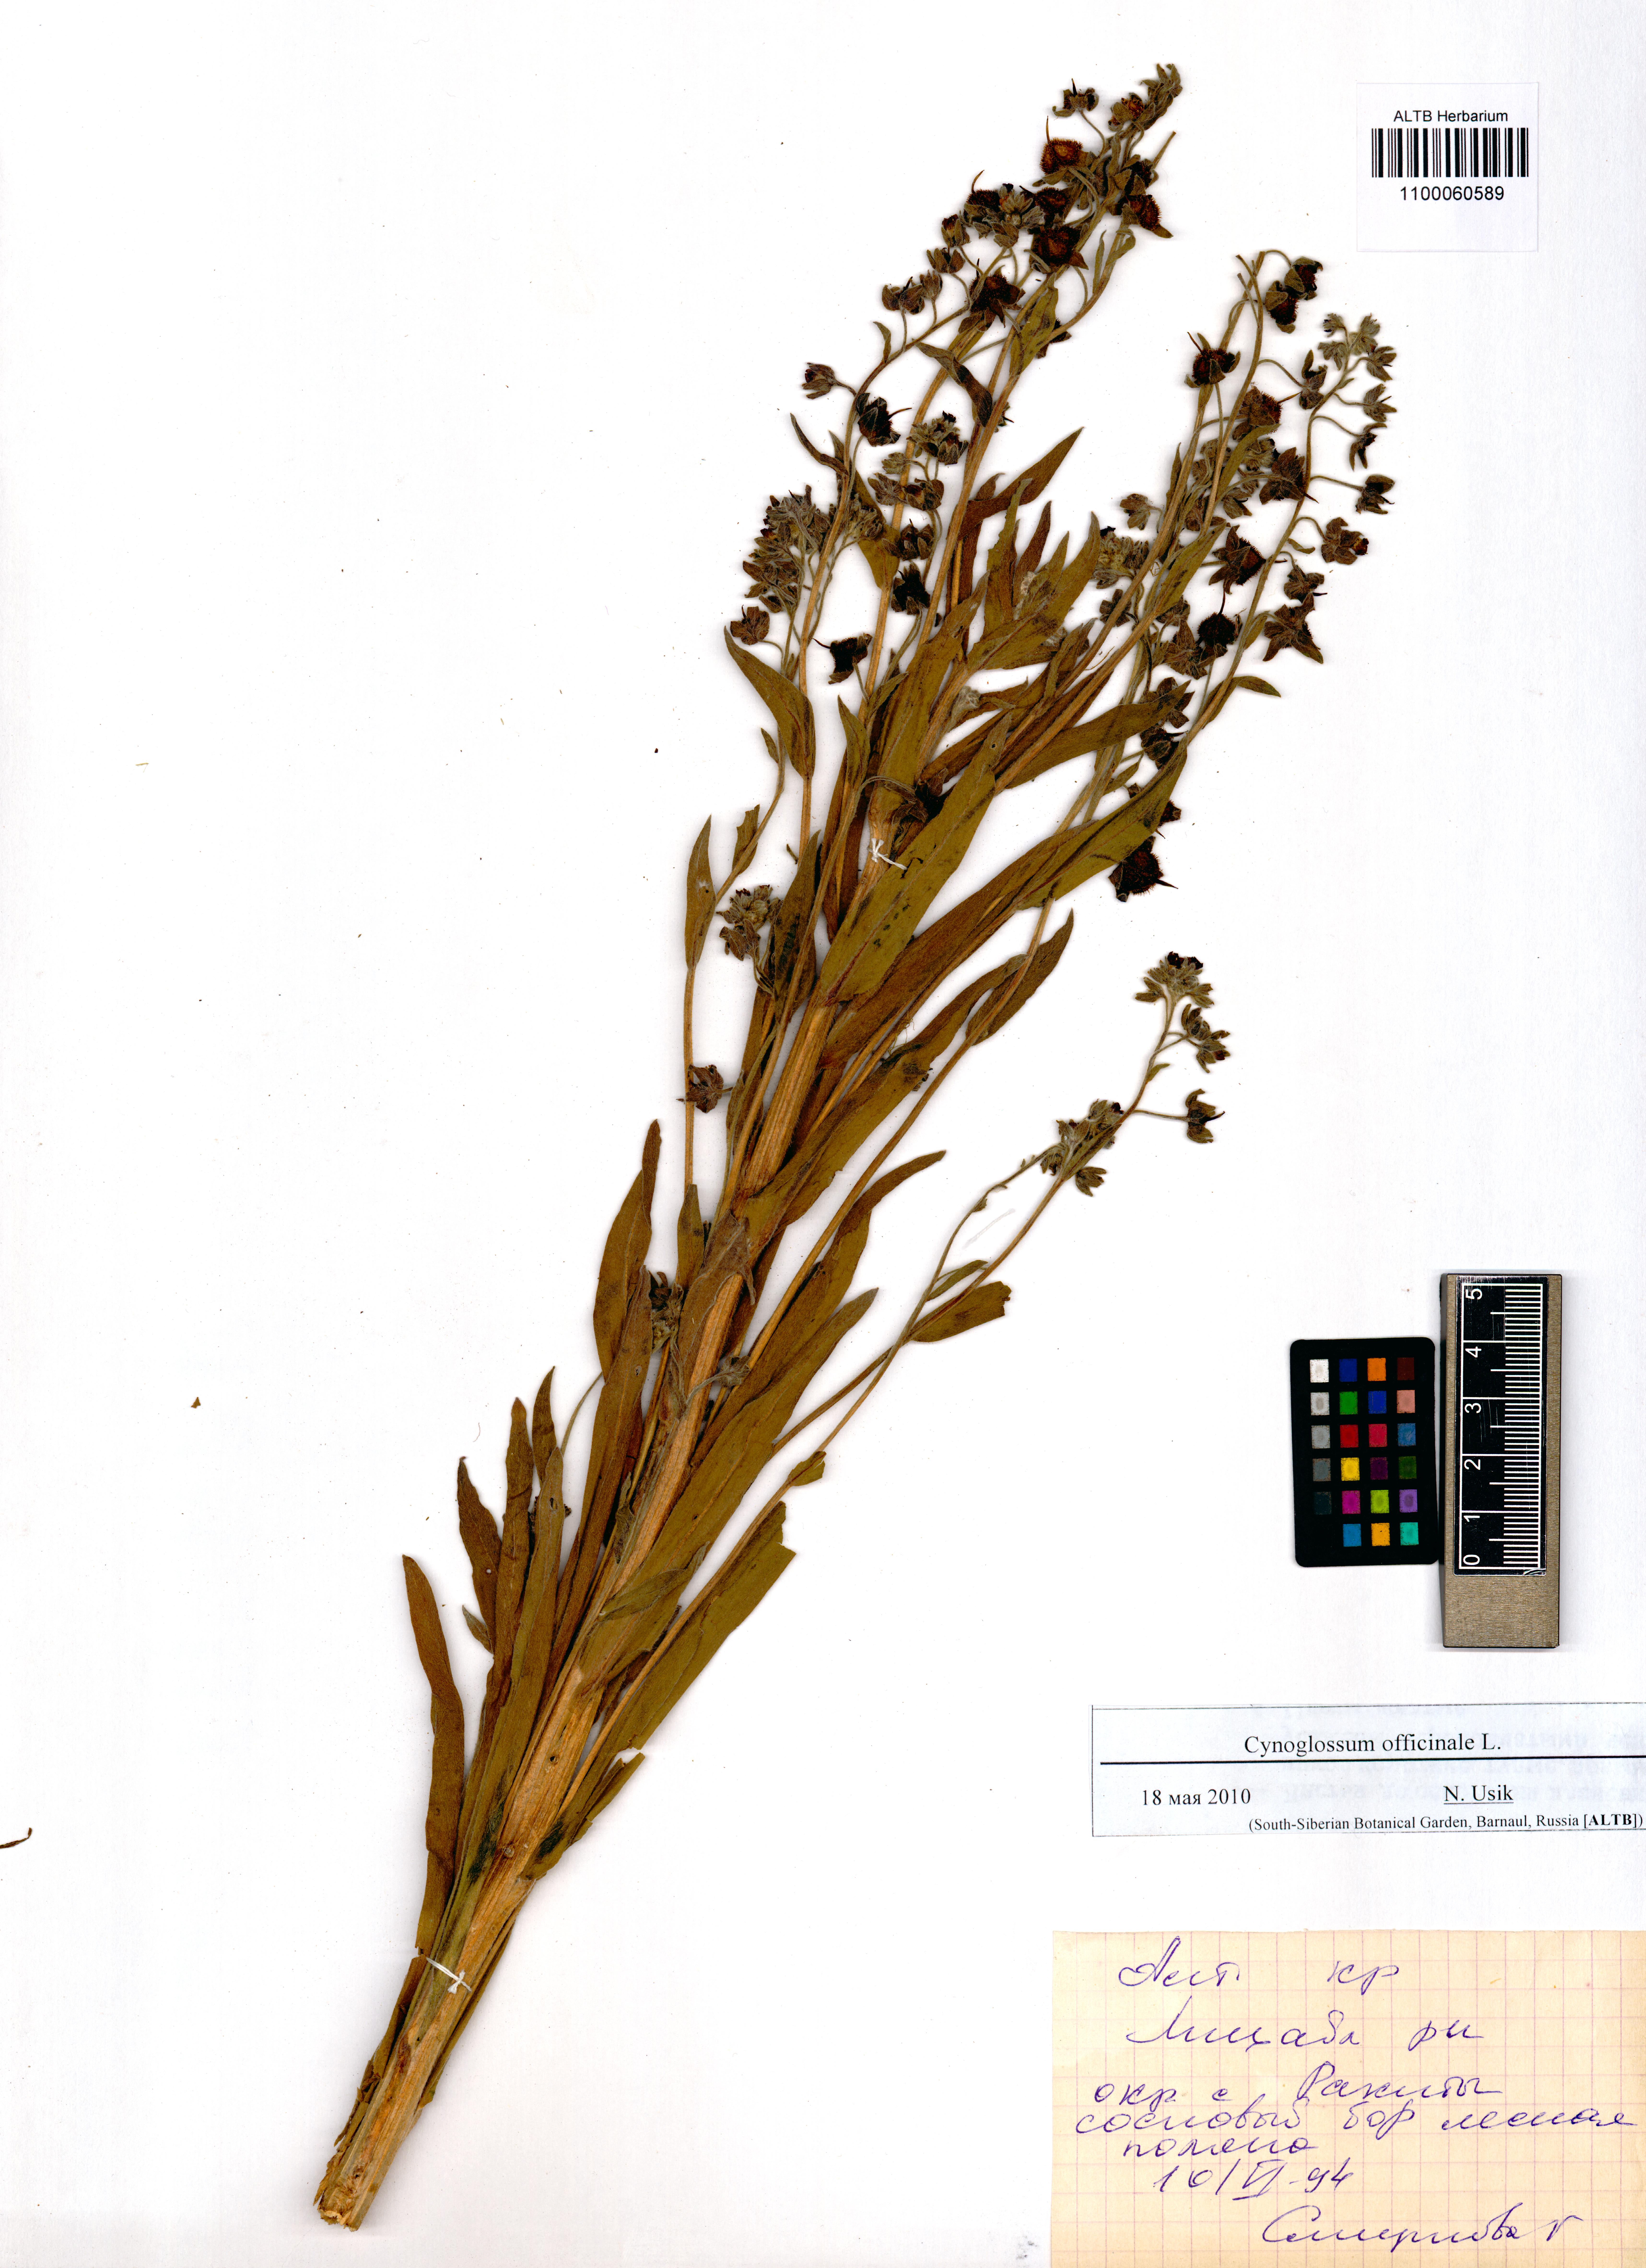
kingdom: Plantae
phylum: Tracheophyta
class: Magnoliopsida
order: Boraginales
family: Boraginaceae
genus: Cynoglossum
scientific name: Cynoglossum officinale
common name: Hound's-tongue
